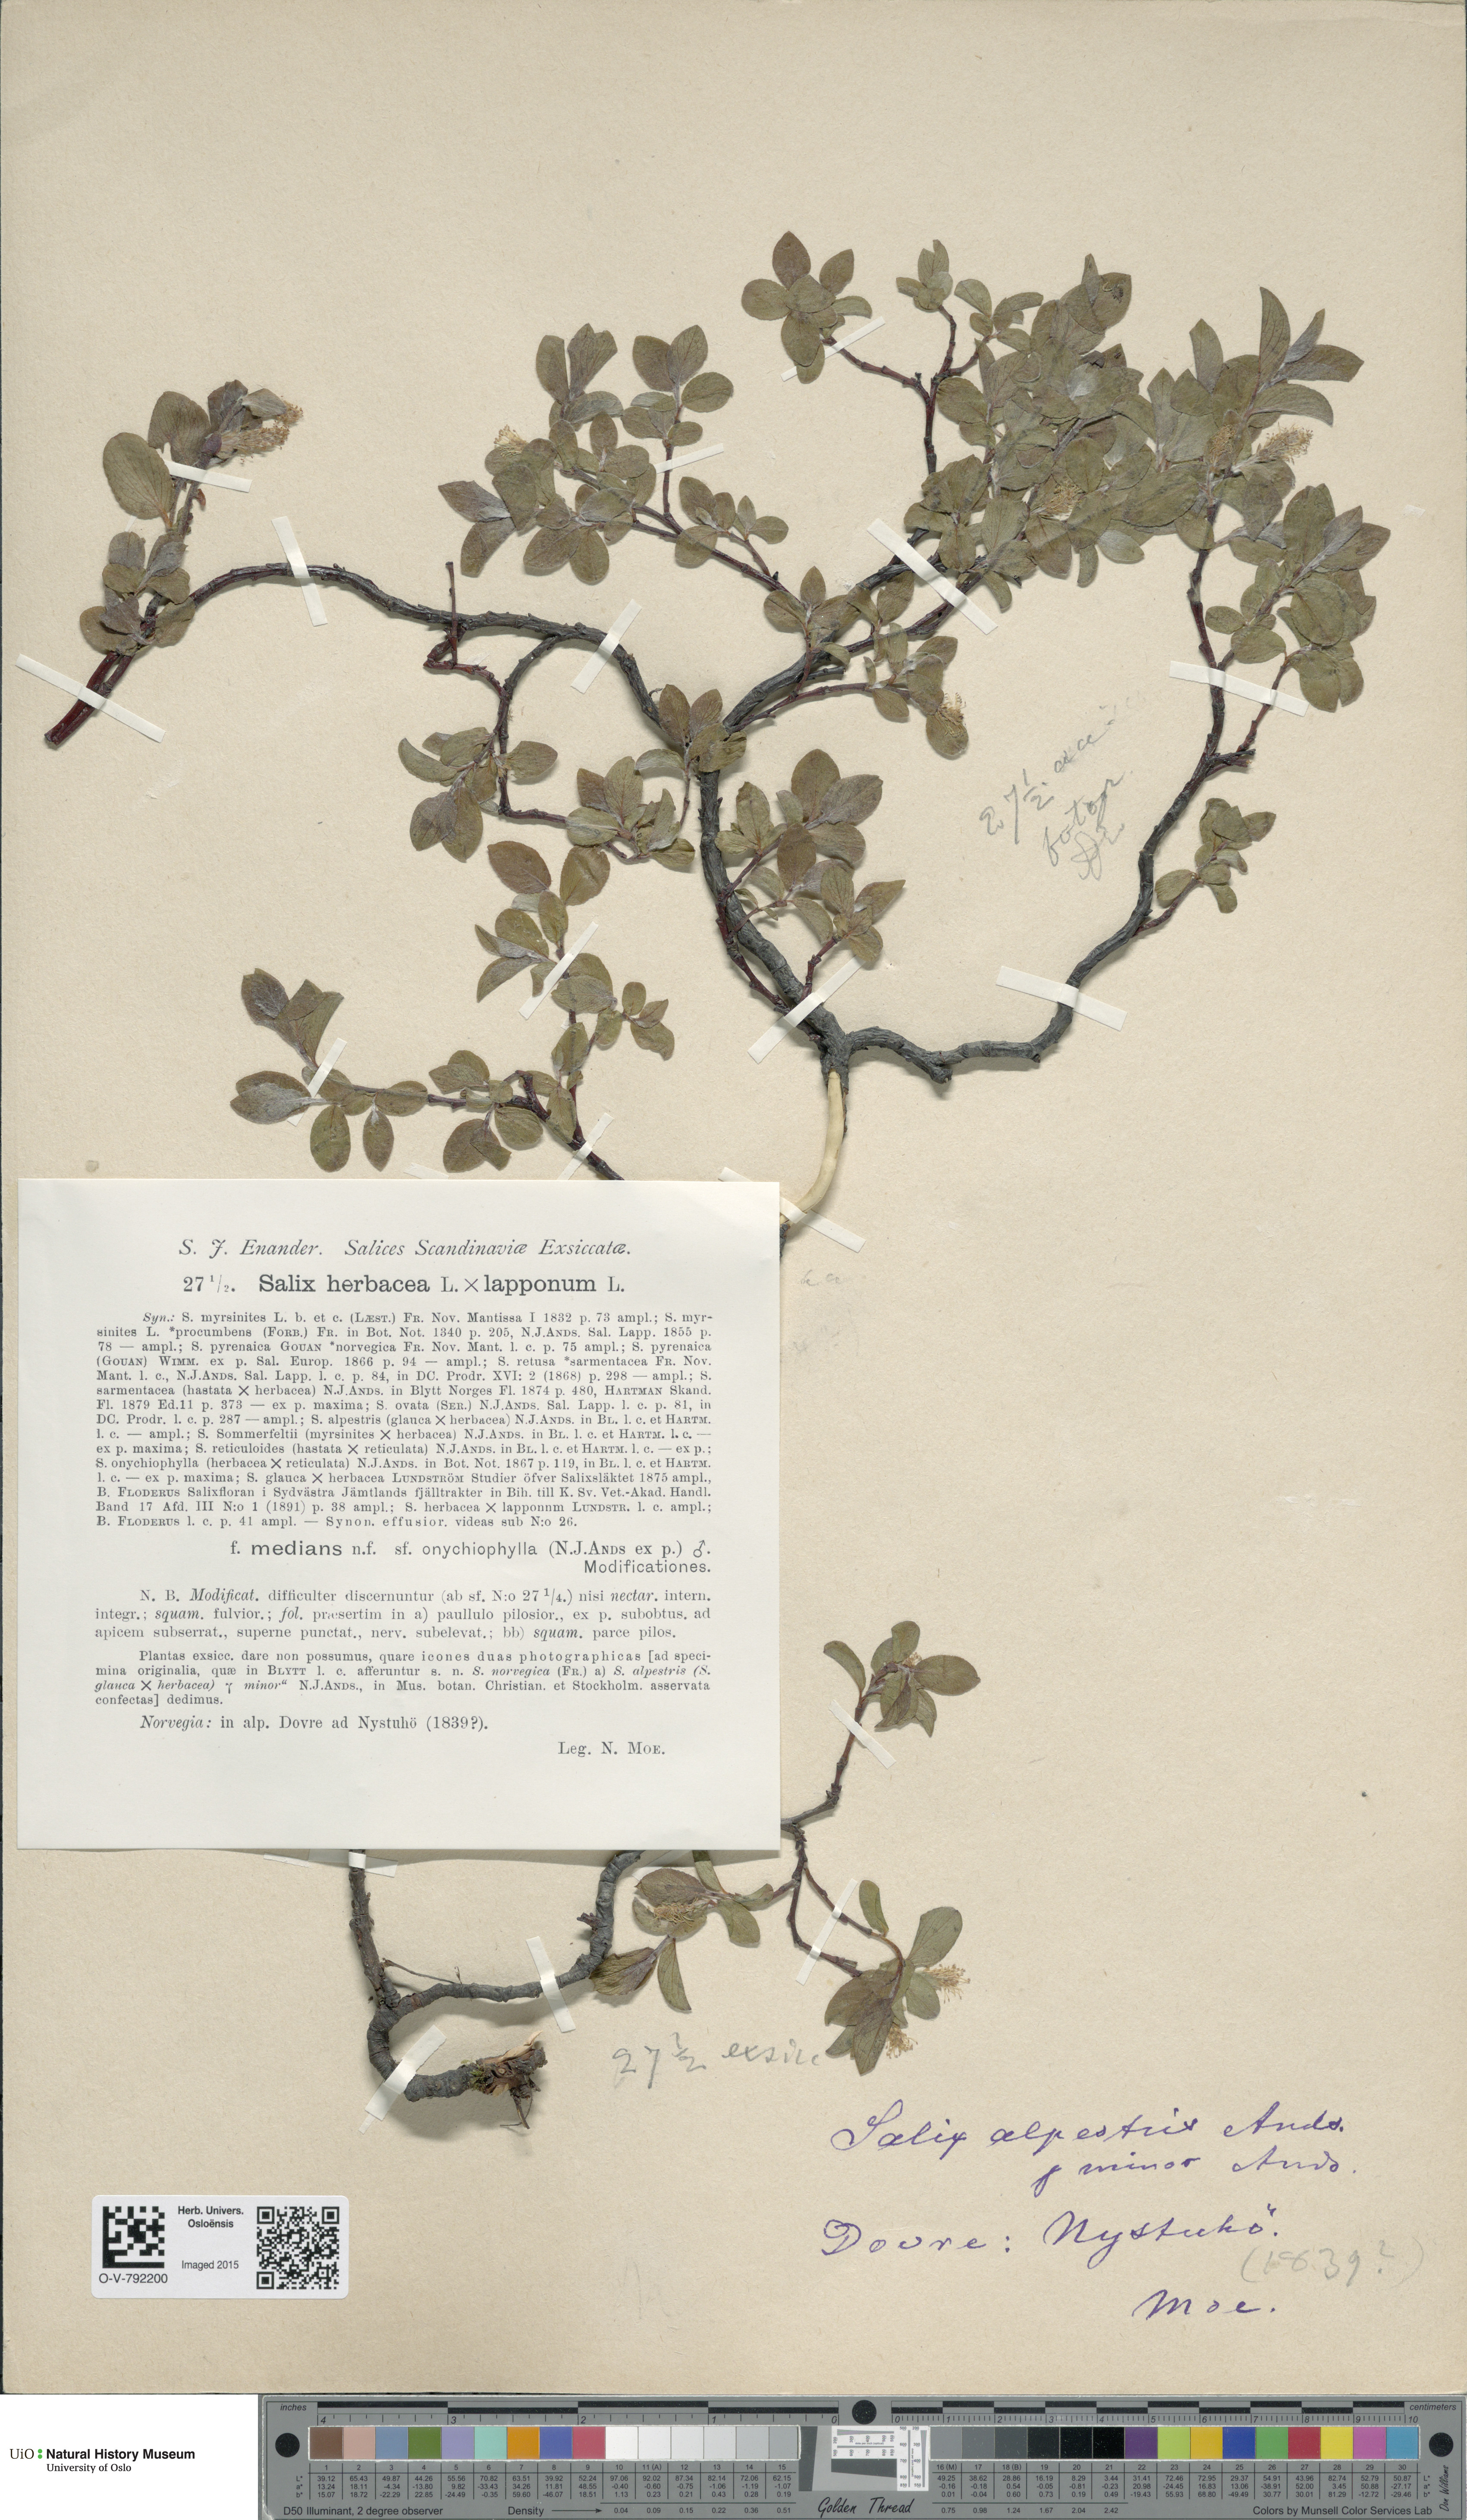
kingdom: Plantae
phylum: Tracheophyta
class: Magnoliopsida
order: Malpighiales
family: Salicaceae
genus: Salix
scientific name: Salix
